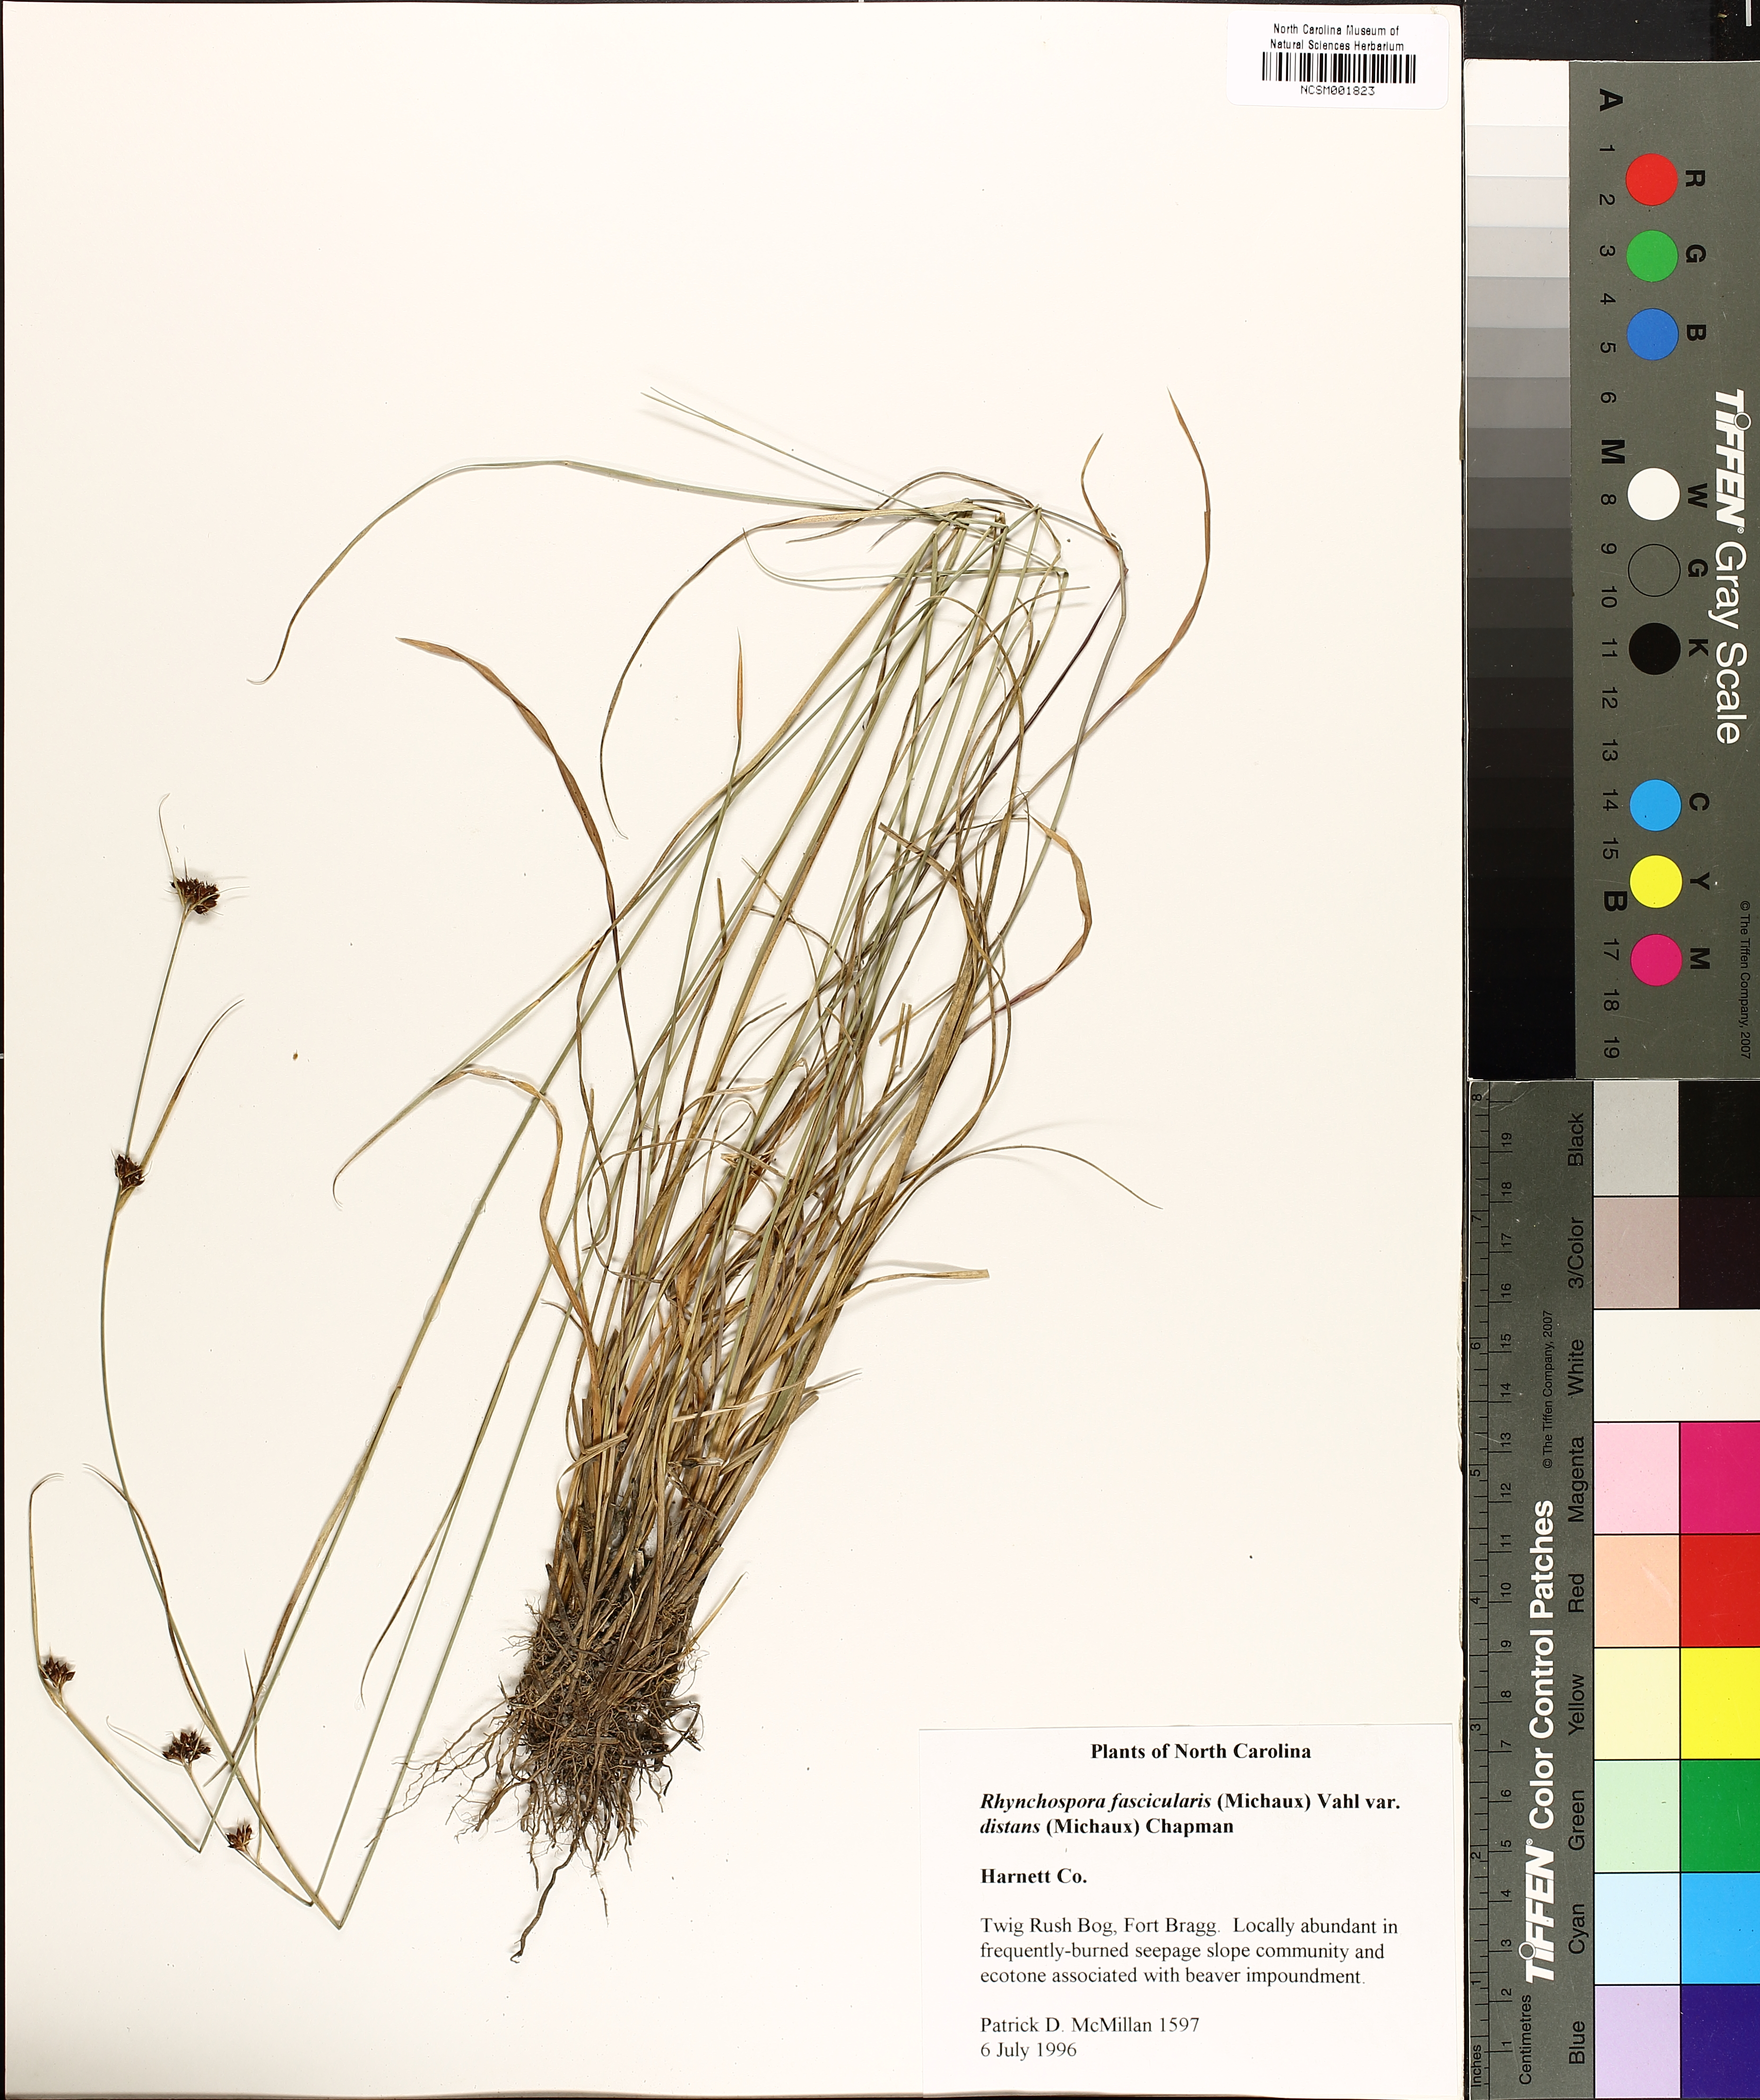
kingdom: Plantae
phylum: Tracheophyta
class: Liliopsida
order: Poales
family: Cyperaceae
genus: Rhynchospora
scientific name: Rhynchospora fascicularis
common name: Fascicled beak sedge
